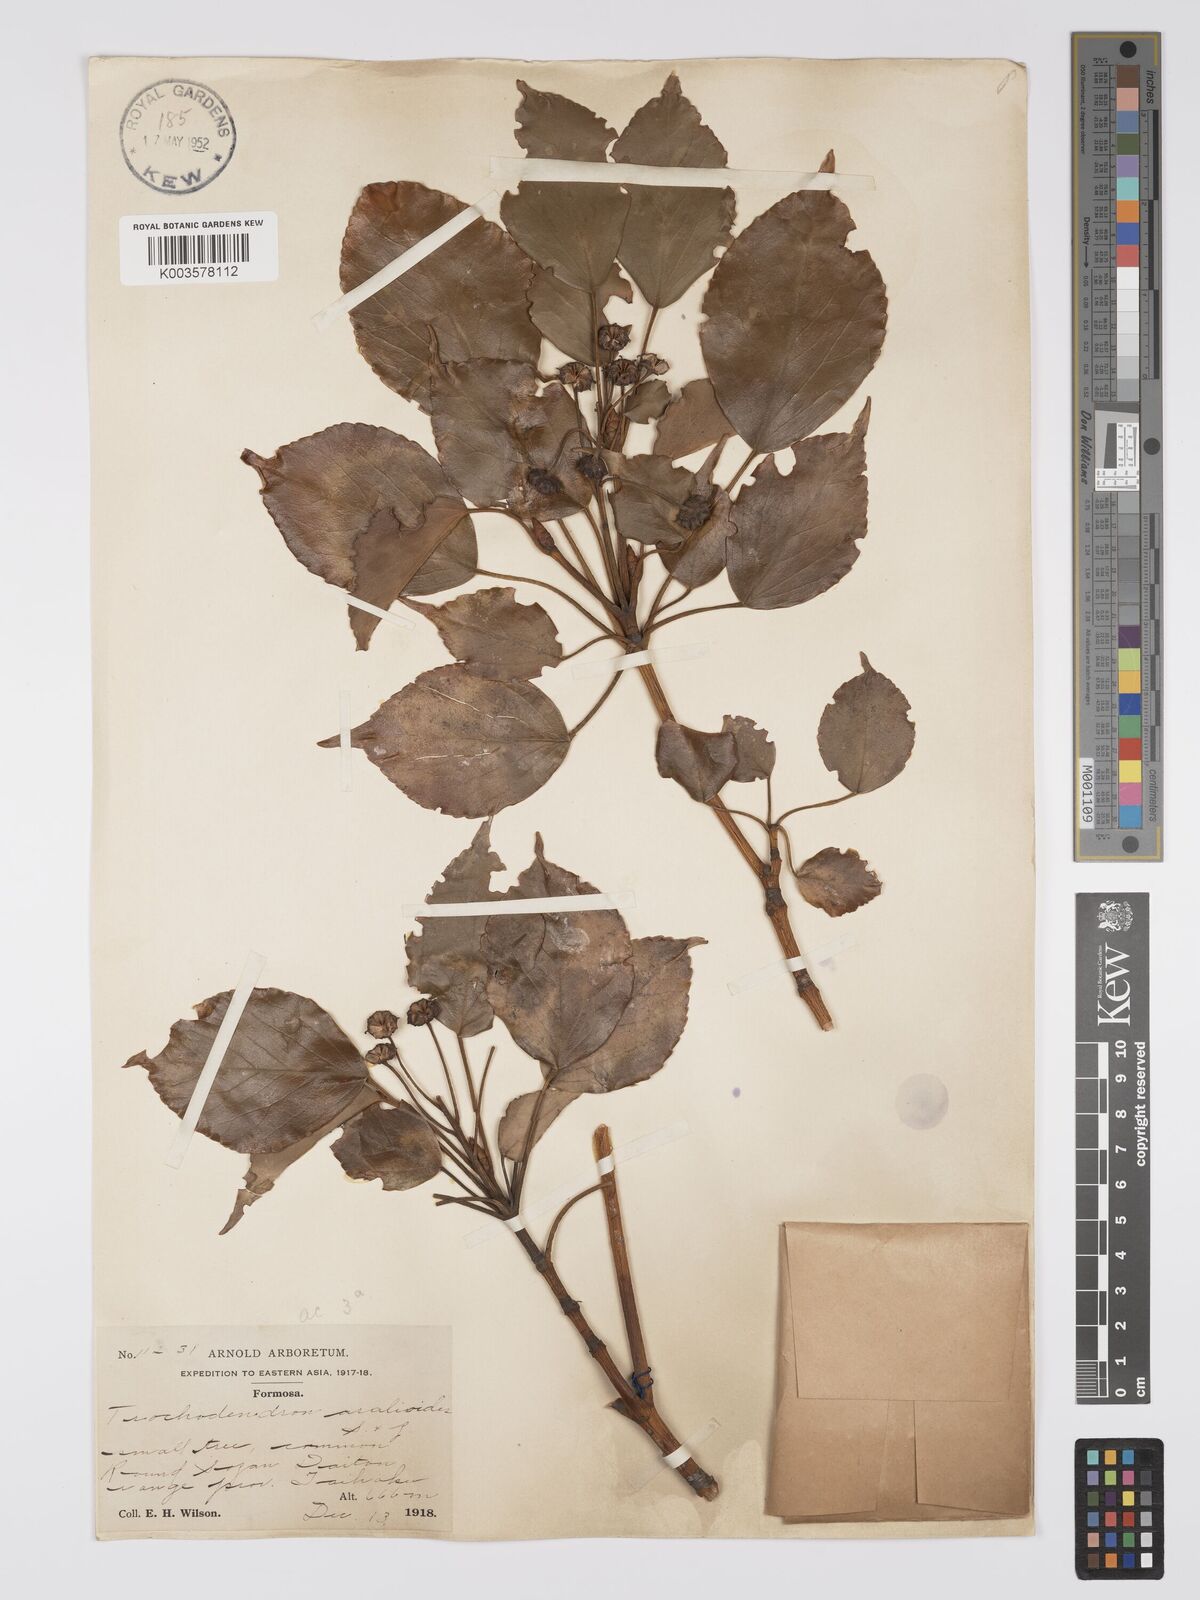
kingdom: Plantae
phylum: Tracheophyta
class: Magnoliopsida
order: Trochodendrales
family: Trochodendraceae
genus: Trochodendron
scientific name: Trochodendron
